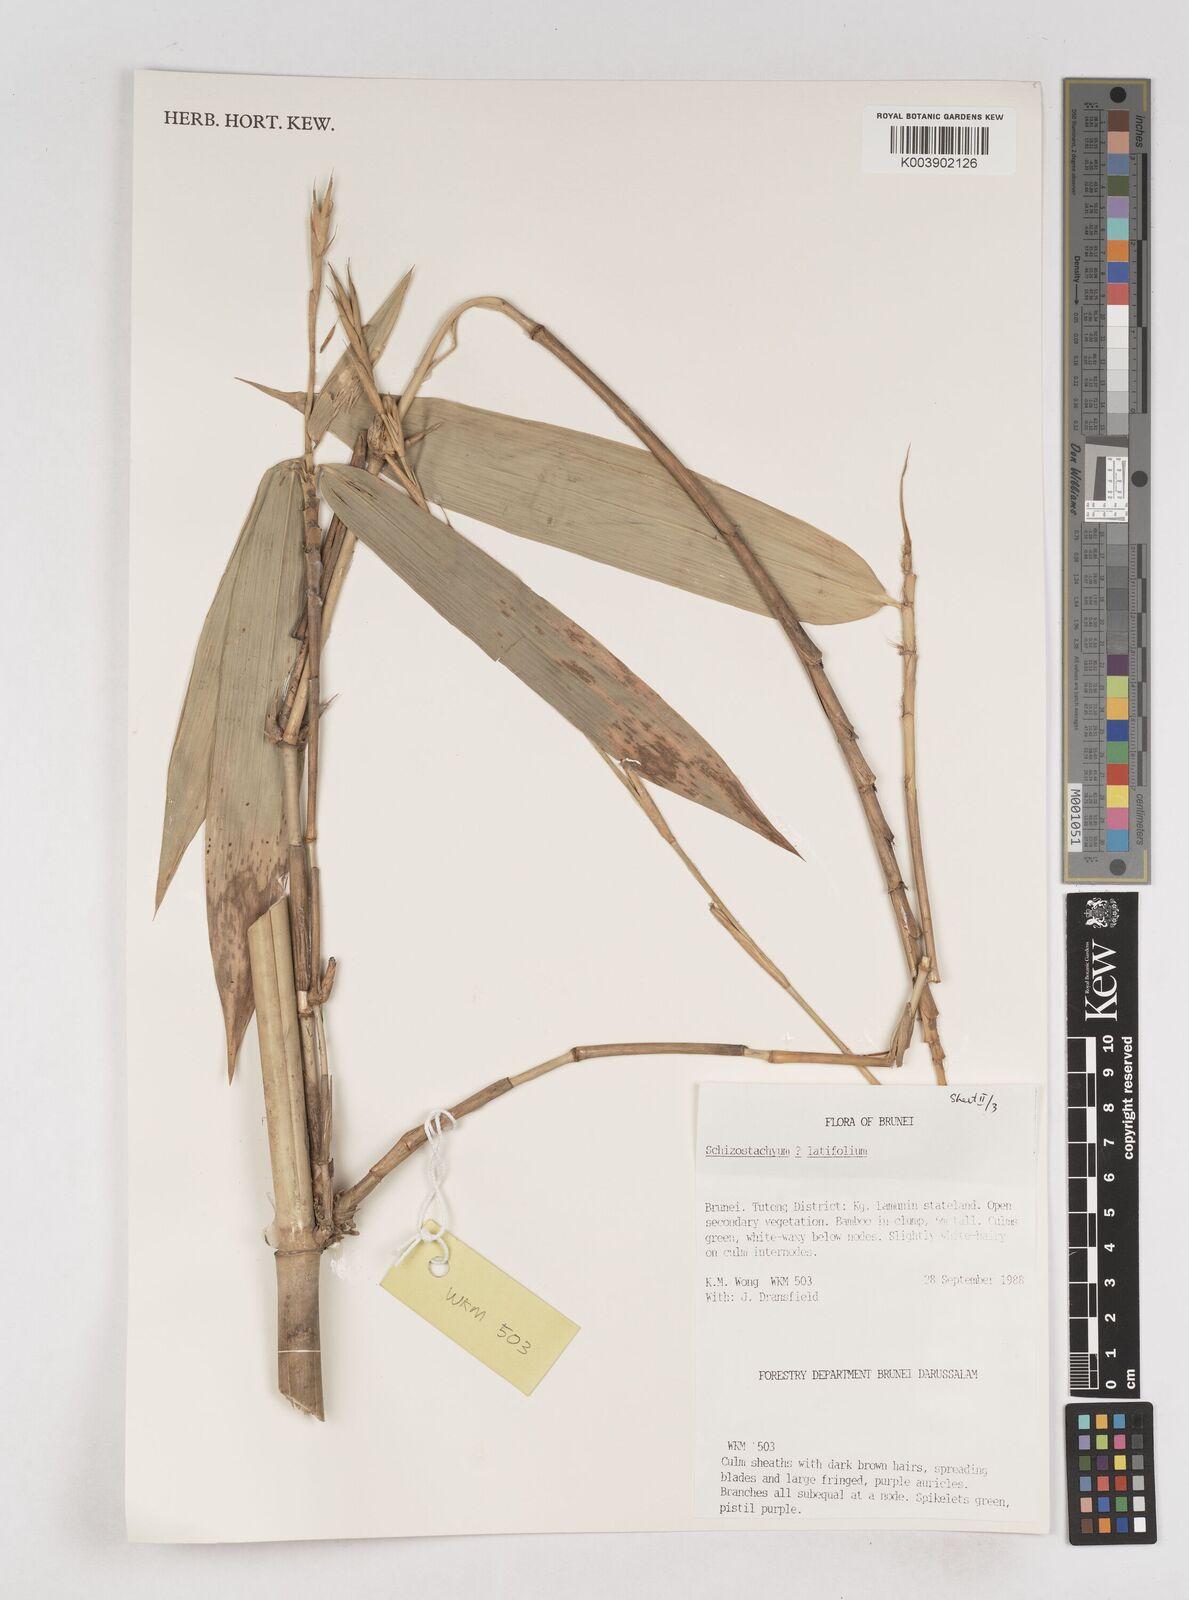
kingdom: Plantae
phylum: Tracheophyta
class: Liliopsida
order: Poales
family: Poaceae
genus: Schizostachyum
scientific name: Schizostachyum
